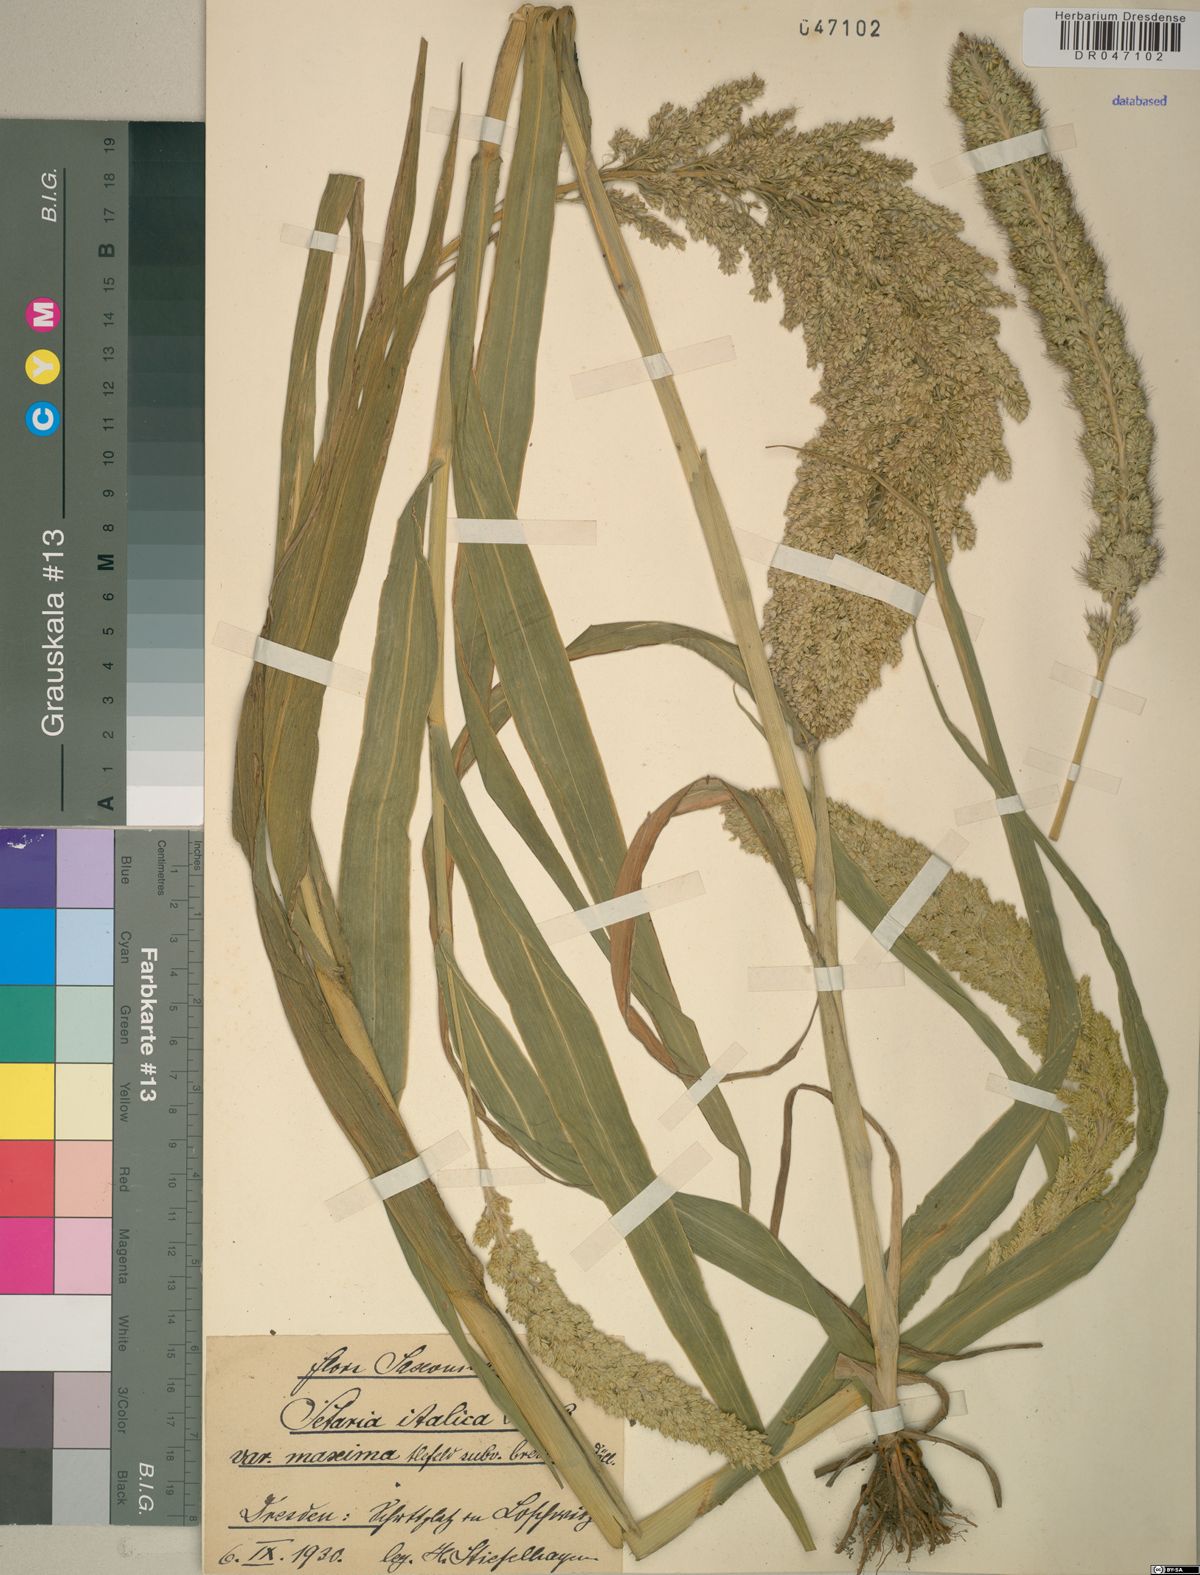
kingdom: Plantae
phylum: Tracheophyta
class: Liliopsida
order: Poales
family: Poaceae
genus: Setaria
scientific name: Setaria italica
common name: Foxtail bristle-grass
